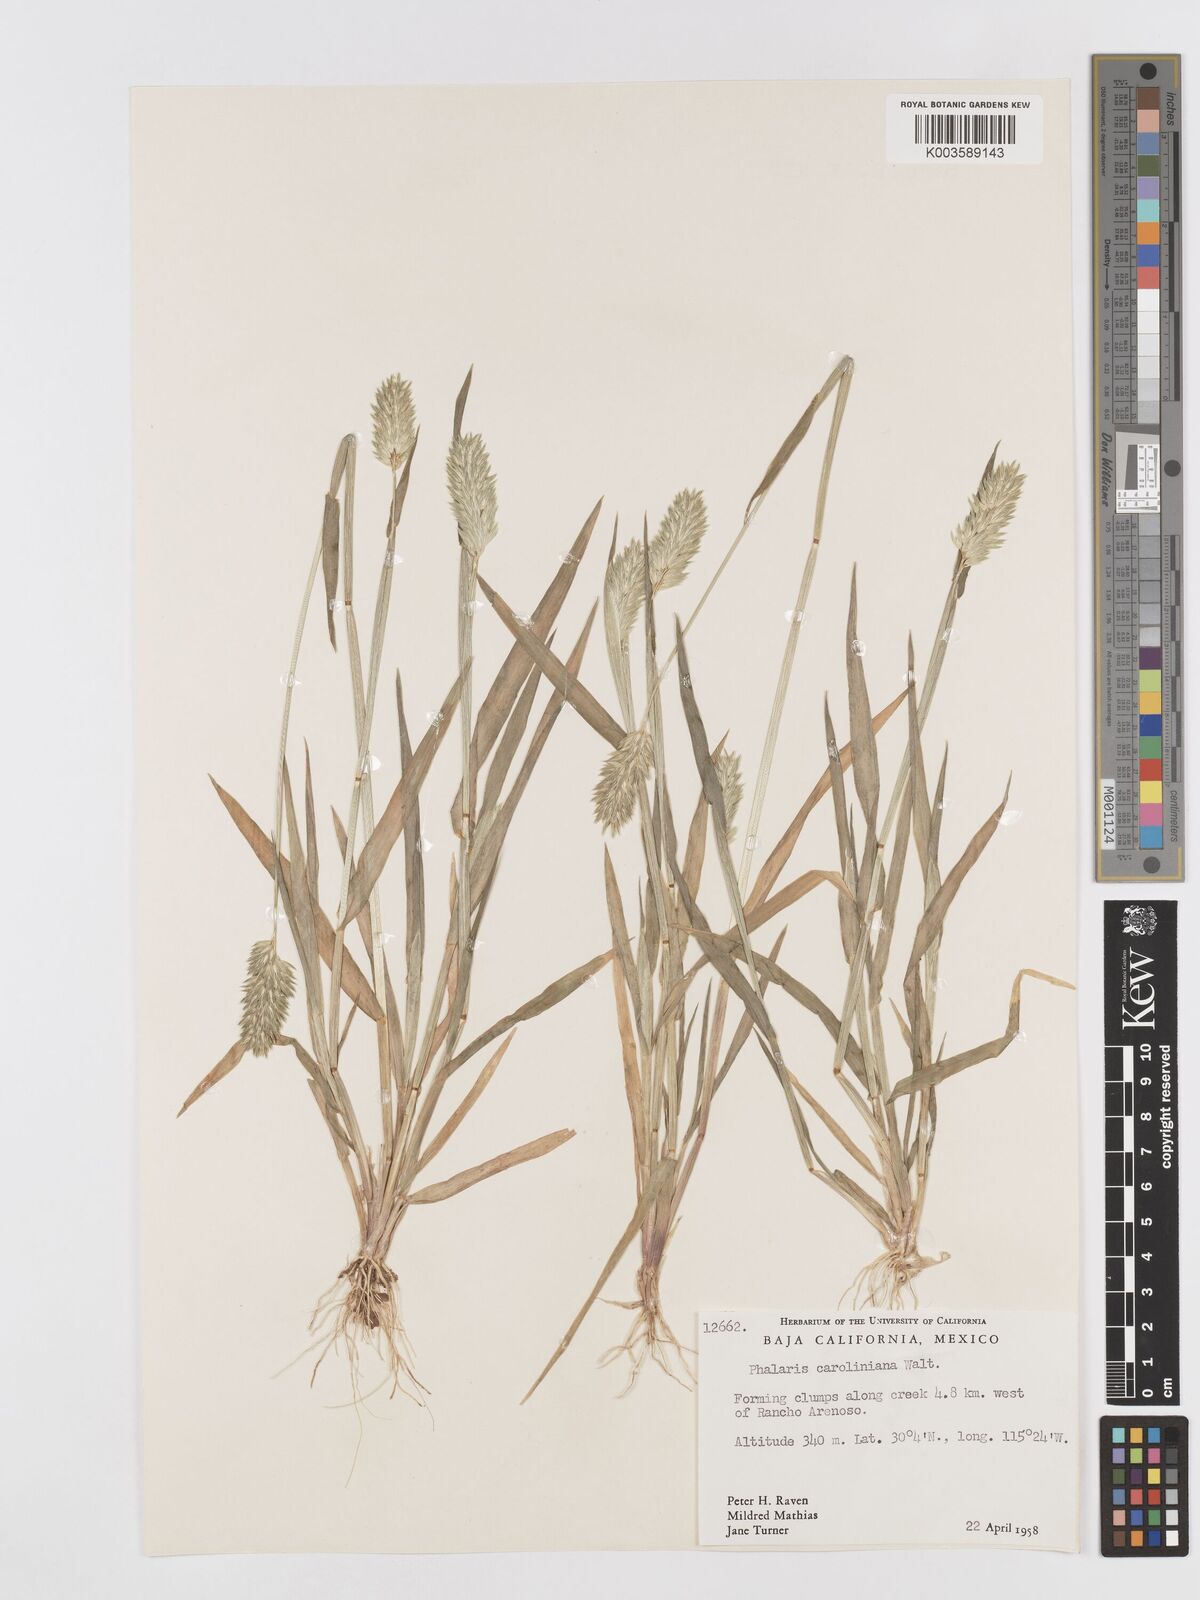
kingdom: Plantae
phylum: Tracheophyta
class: Liliopsida
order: Poales
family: Poaceae
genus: Phalaris
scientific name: Phalaris caroliniana
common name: May grass
